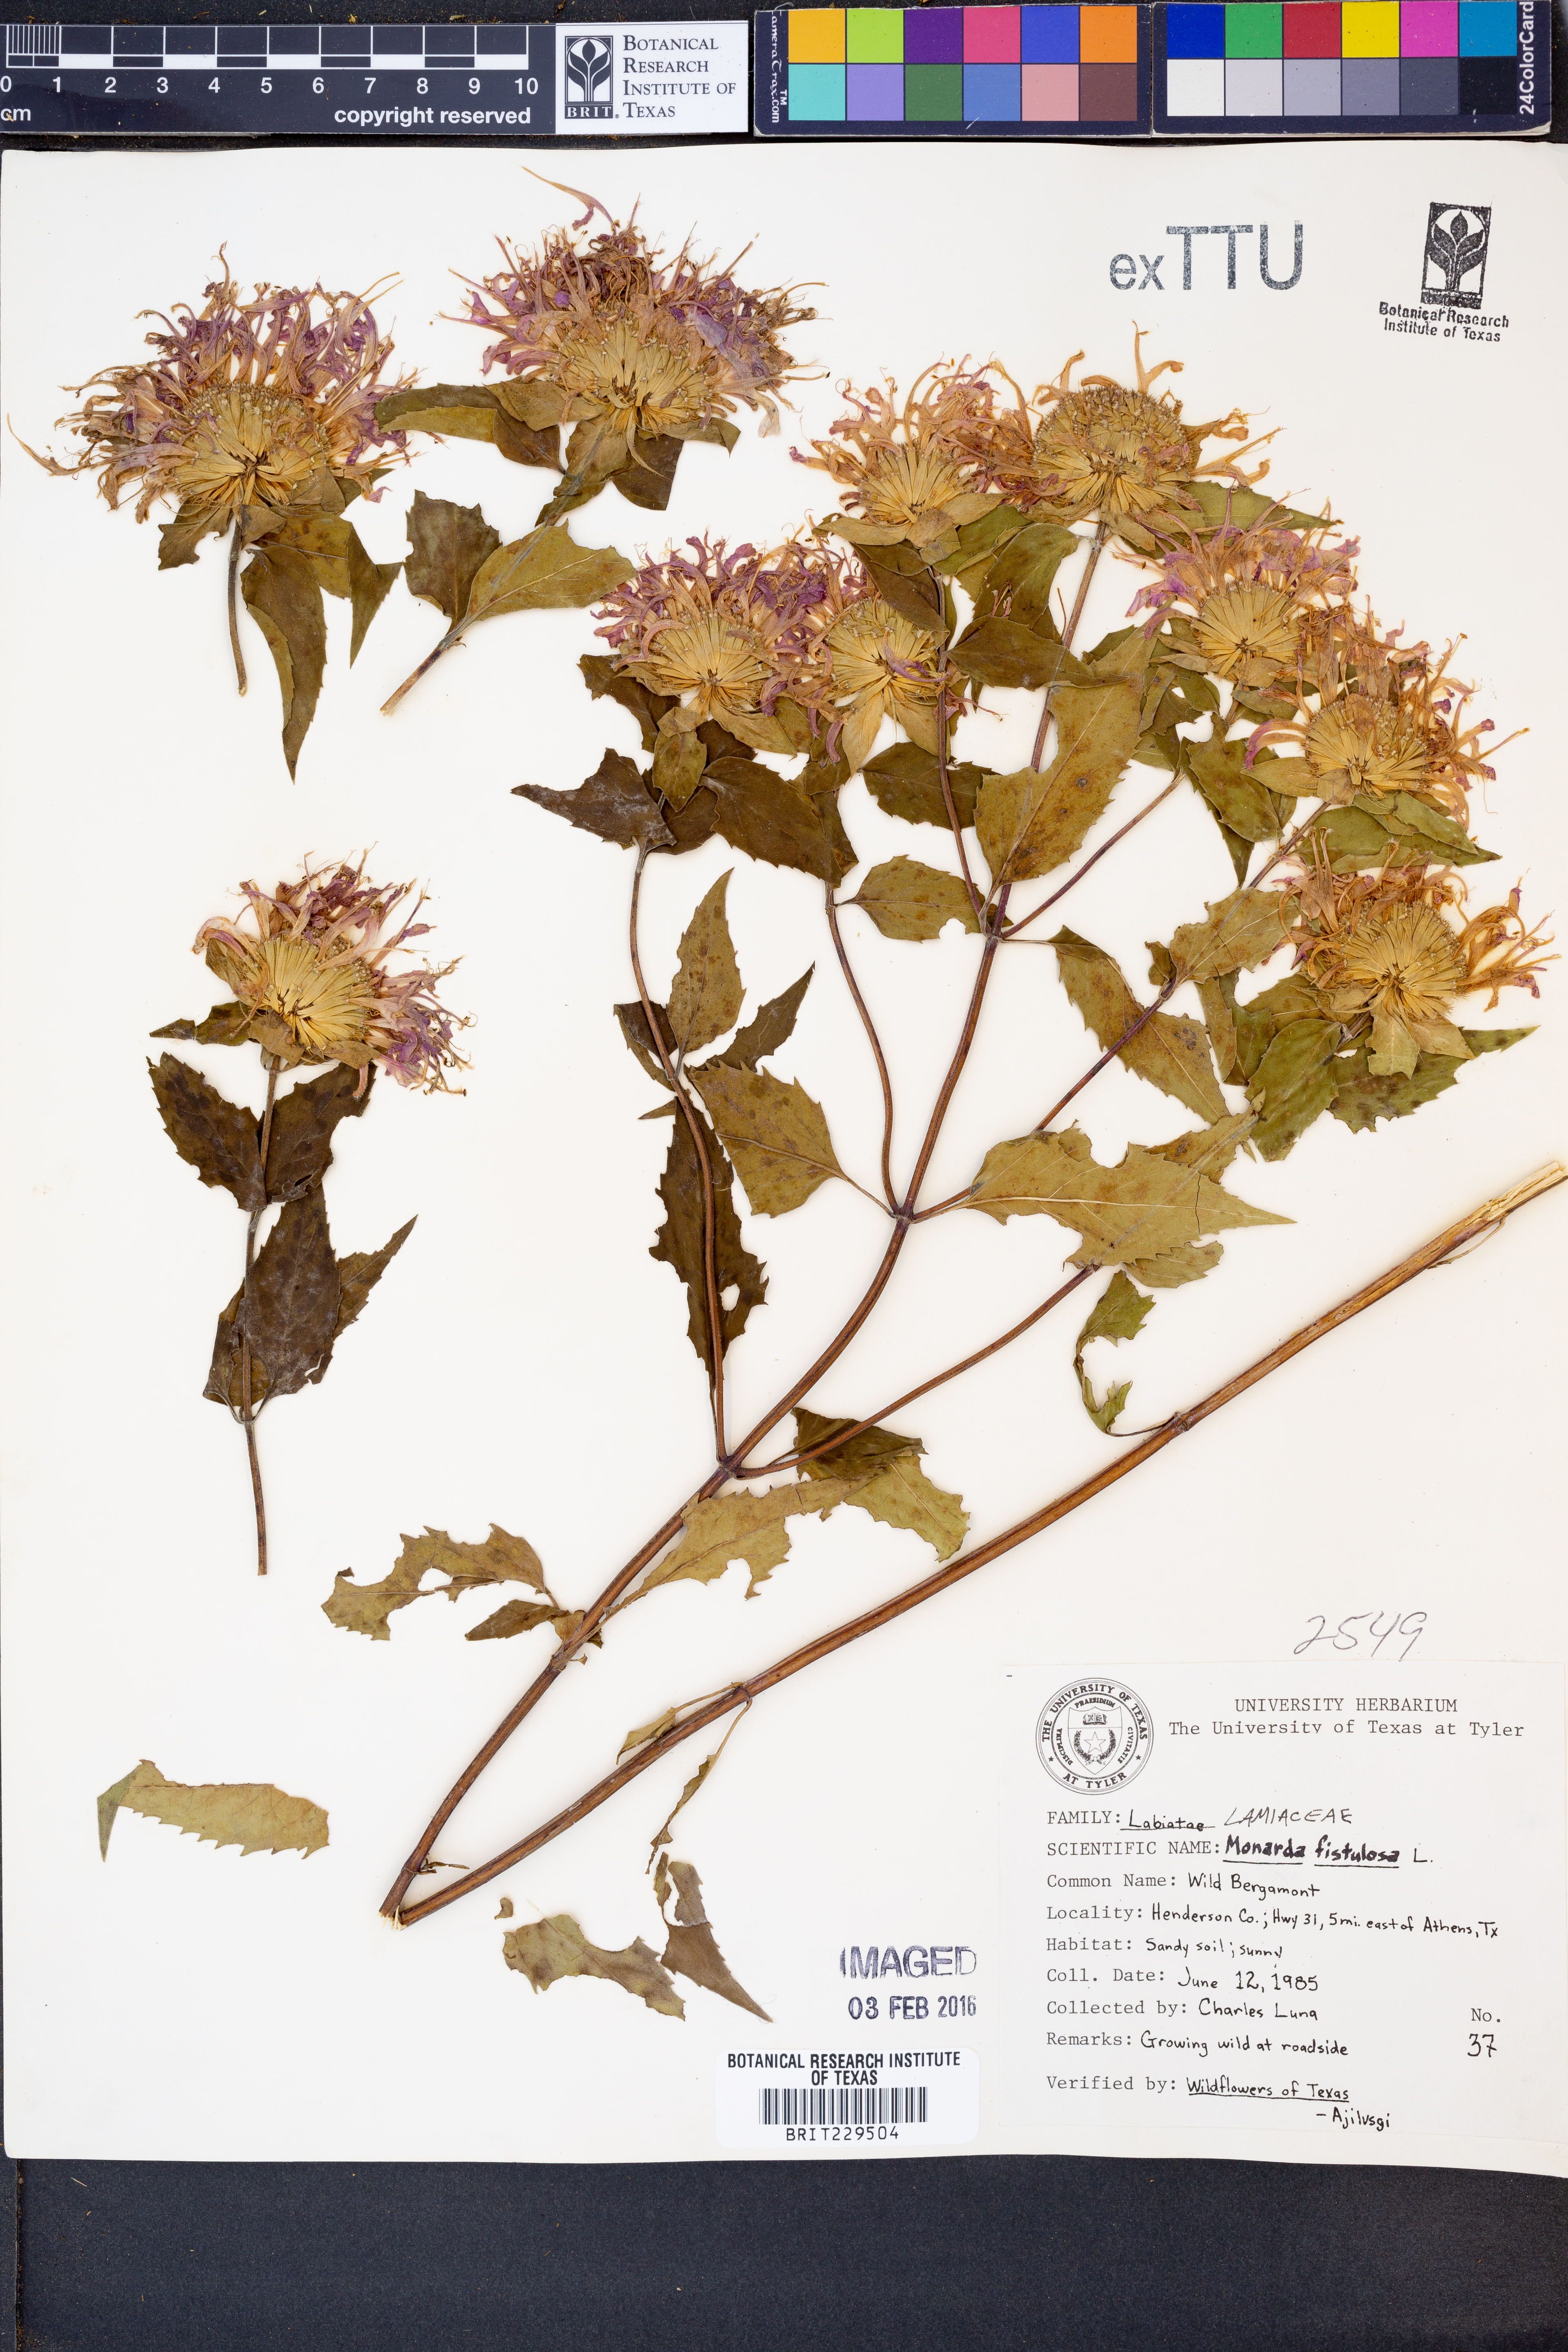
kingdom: Plantae
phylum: Tracheophyta
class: Magnoliopsida
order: Lamiales
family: Lamiaceae
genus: Monarda
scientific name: Monarda fistulosa
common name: Purple beebalm
